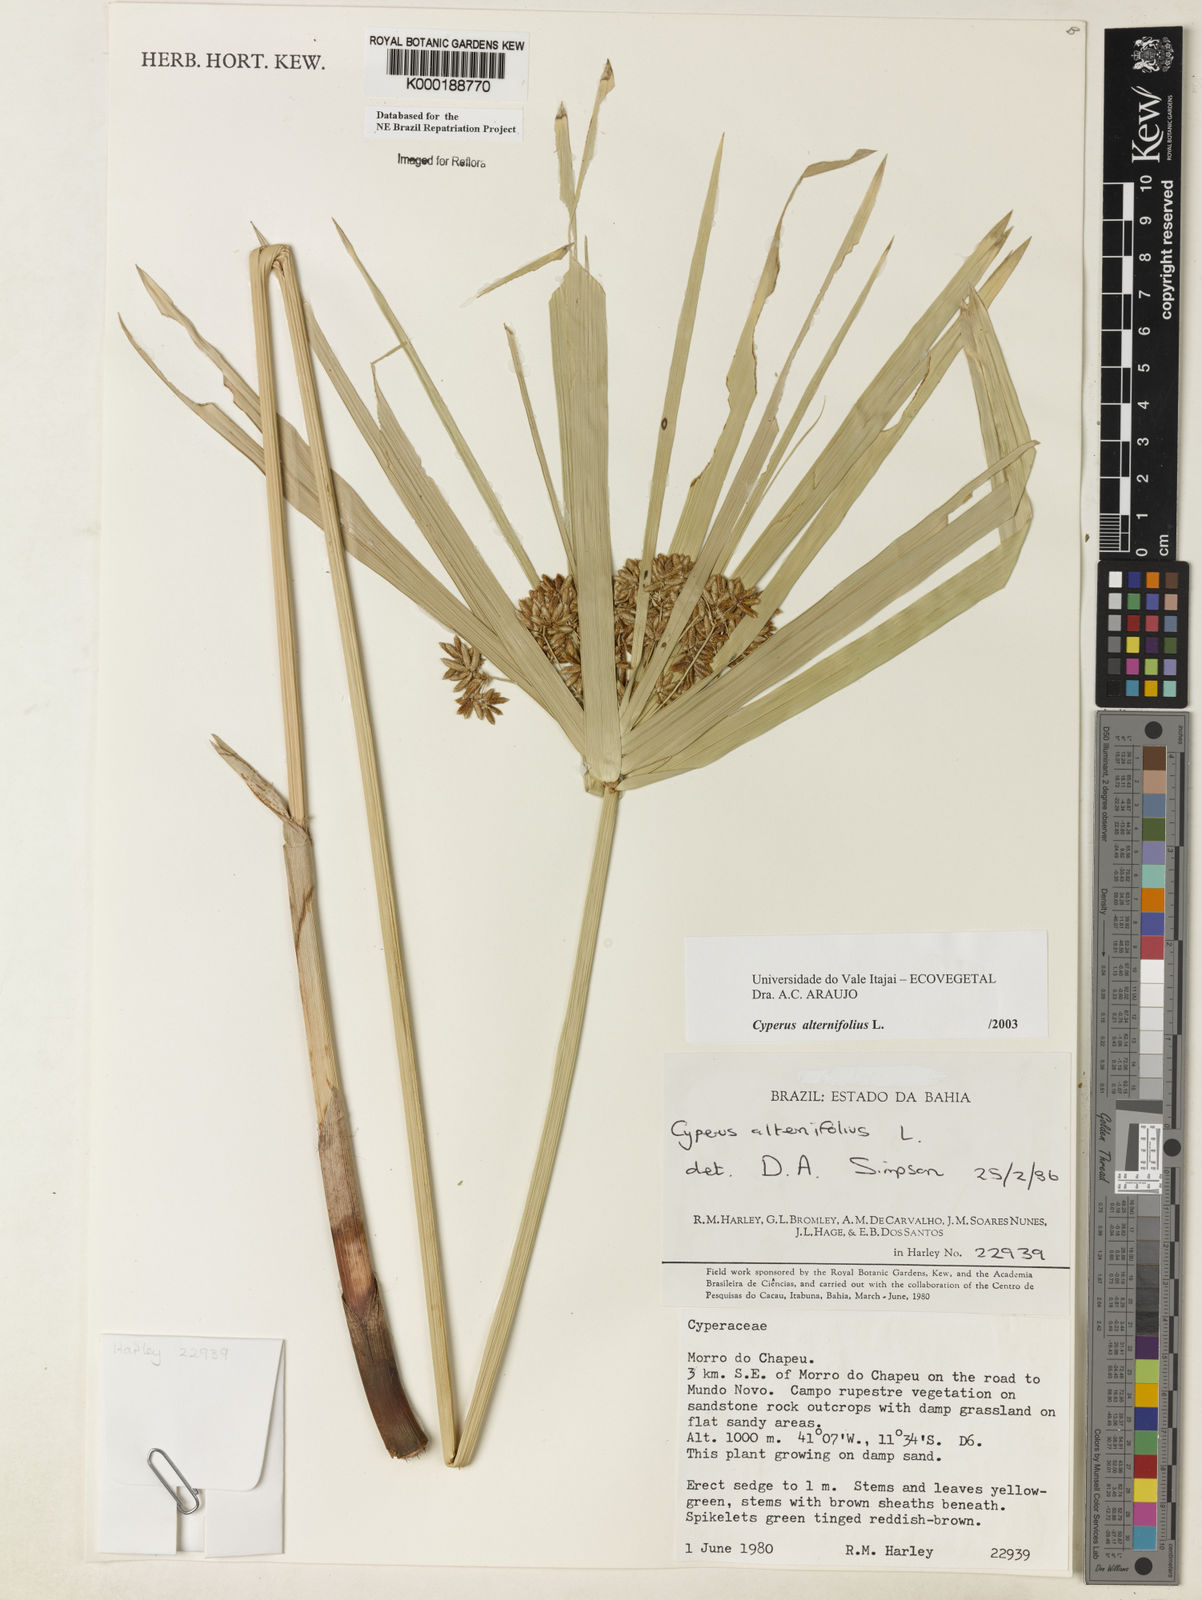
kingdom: Plantae
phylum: Tracheophyta
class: Liliopsida
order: Poales
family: Cyperaceae
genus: Cyperus
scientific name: Cyperus alternifolius
